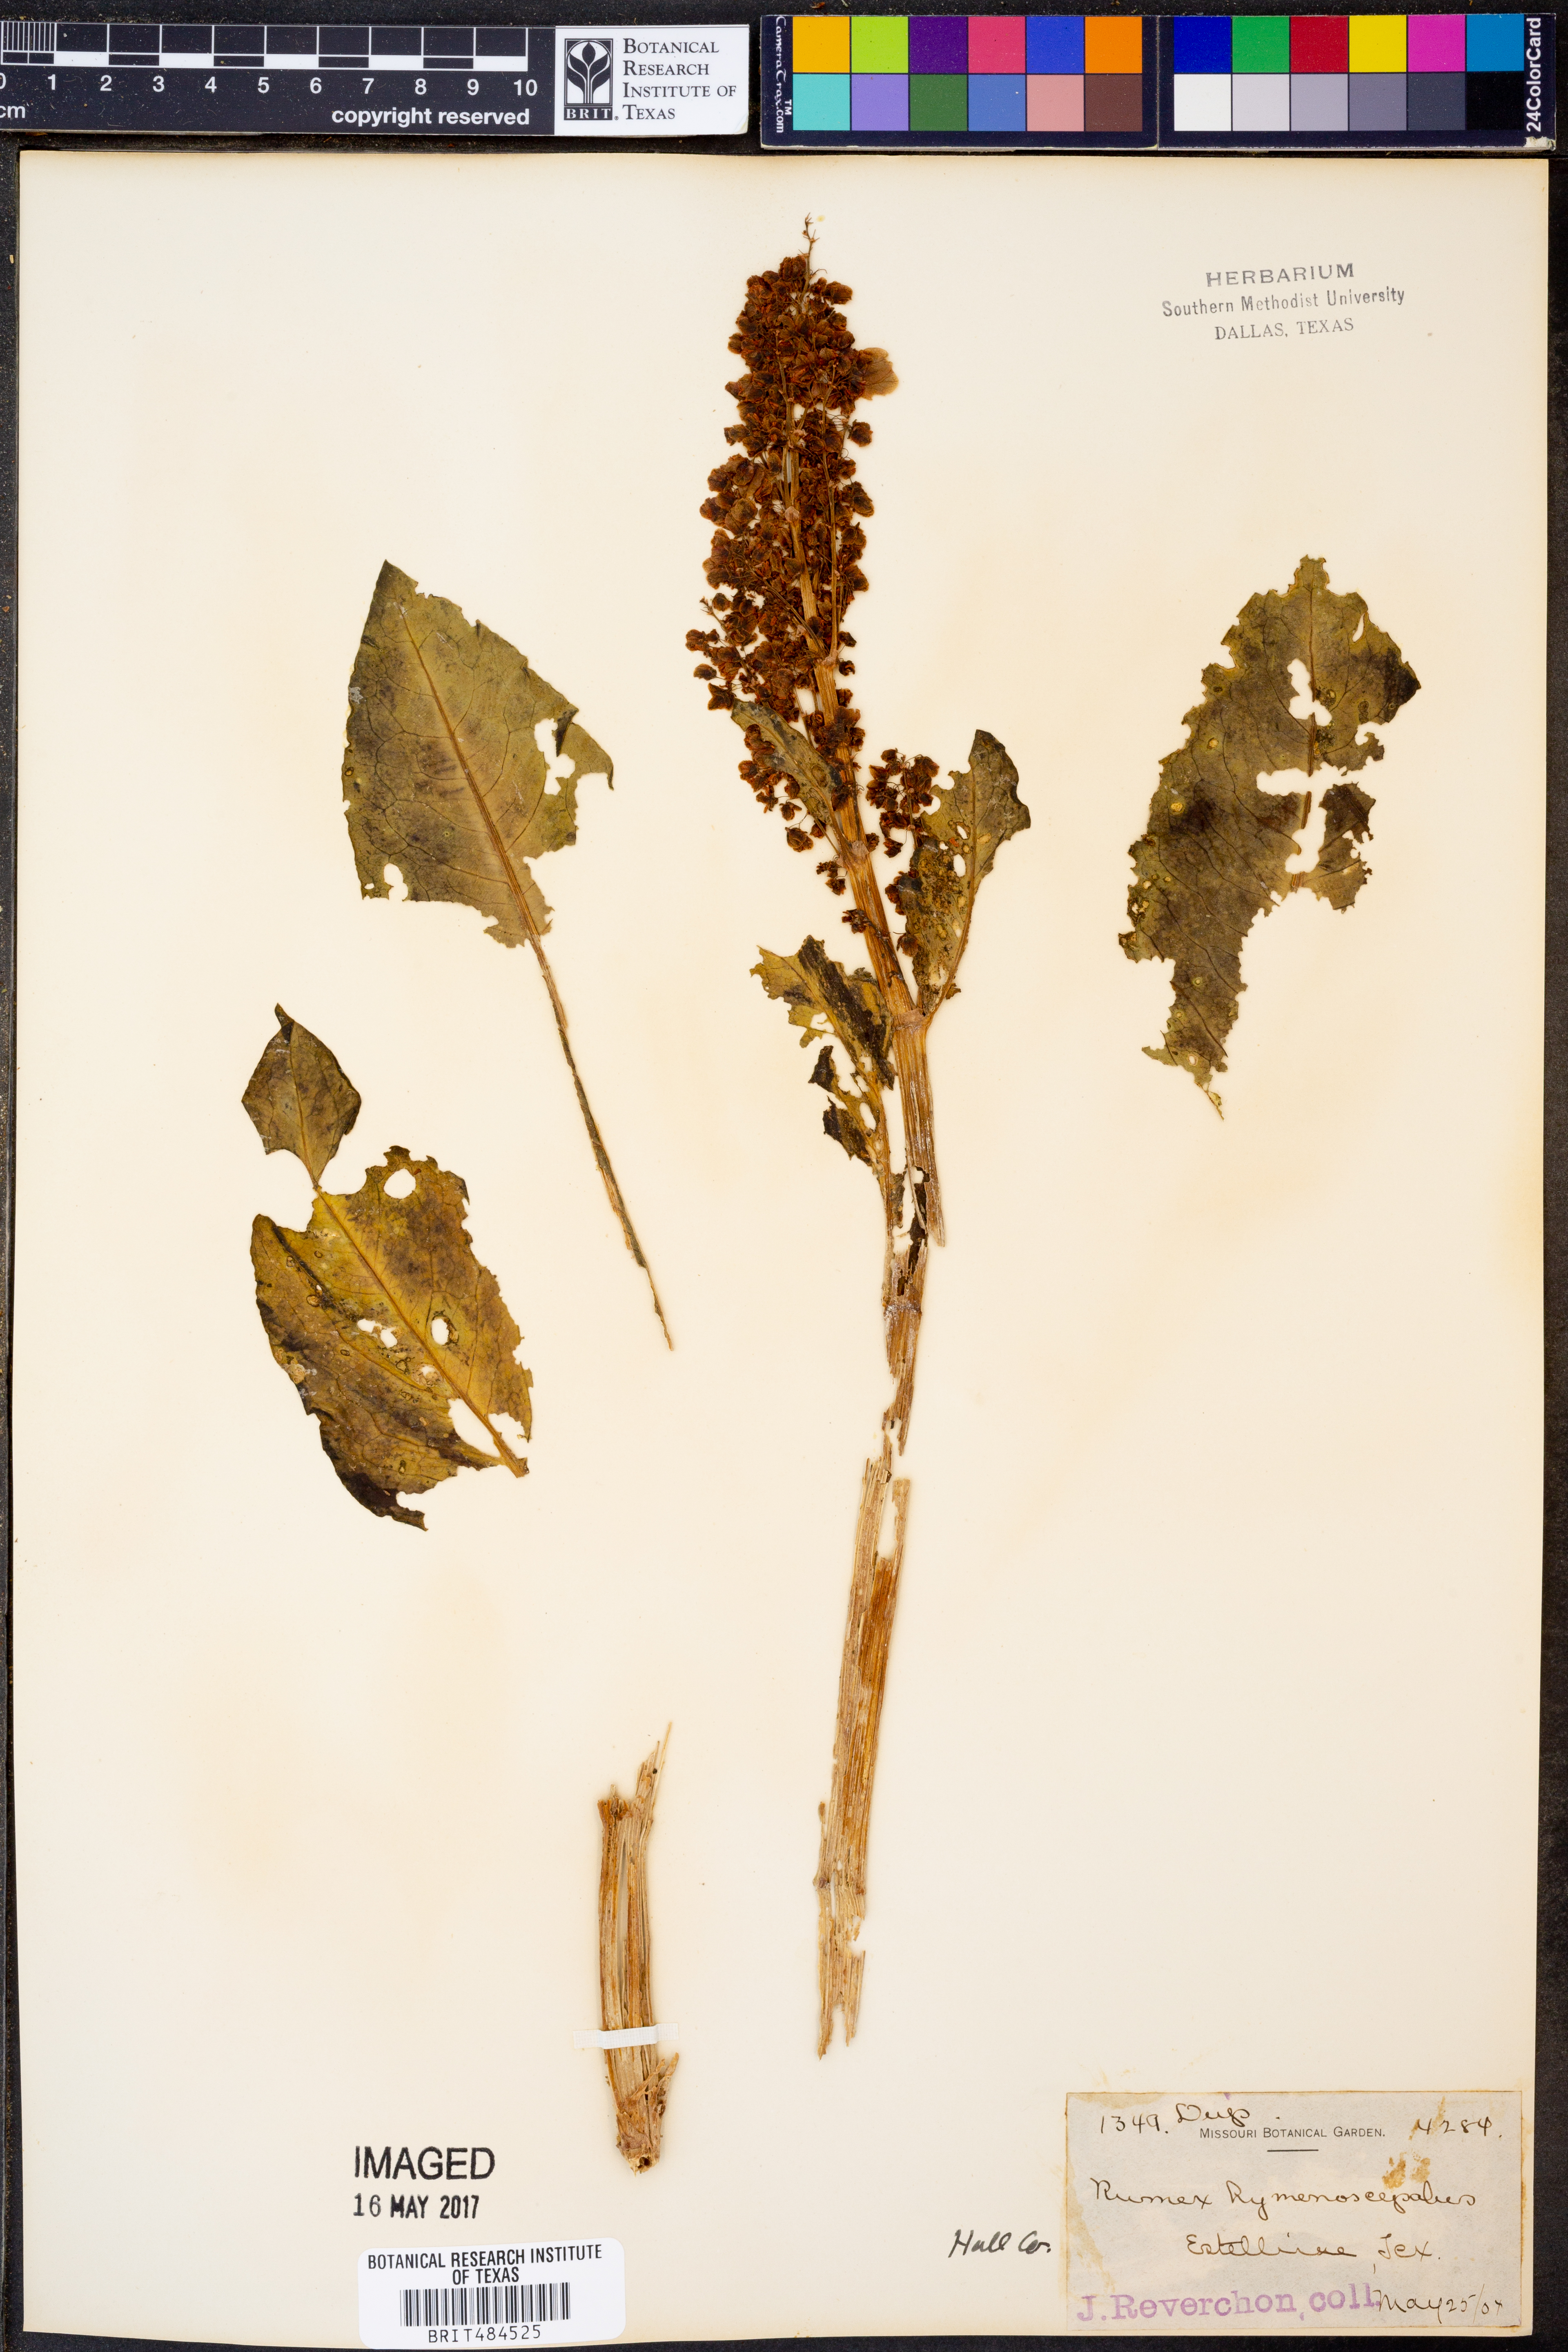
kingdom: Plantae
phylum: Tracheophyta
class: Magnoliopsida
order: Caryophyllales
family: Polygonaceae
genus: Rumex
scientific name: Rumex hymenosepalus
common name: Ganagra
